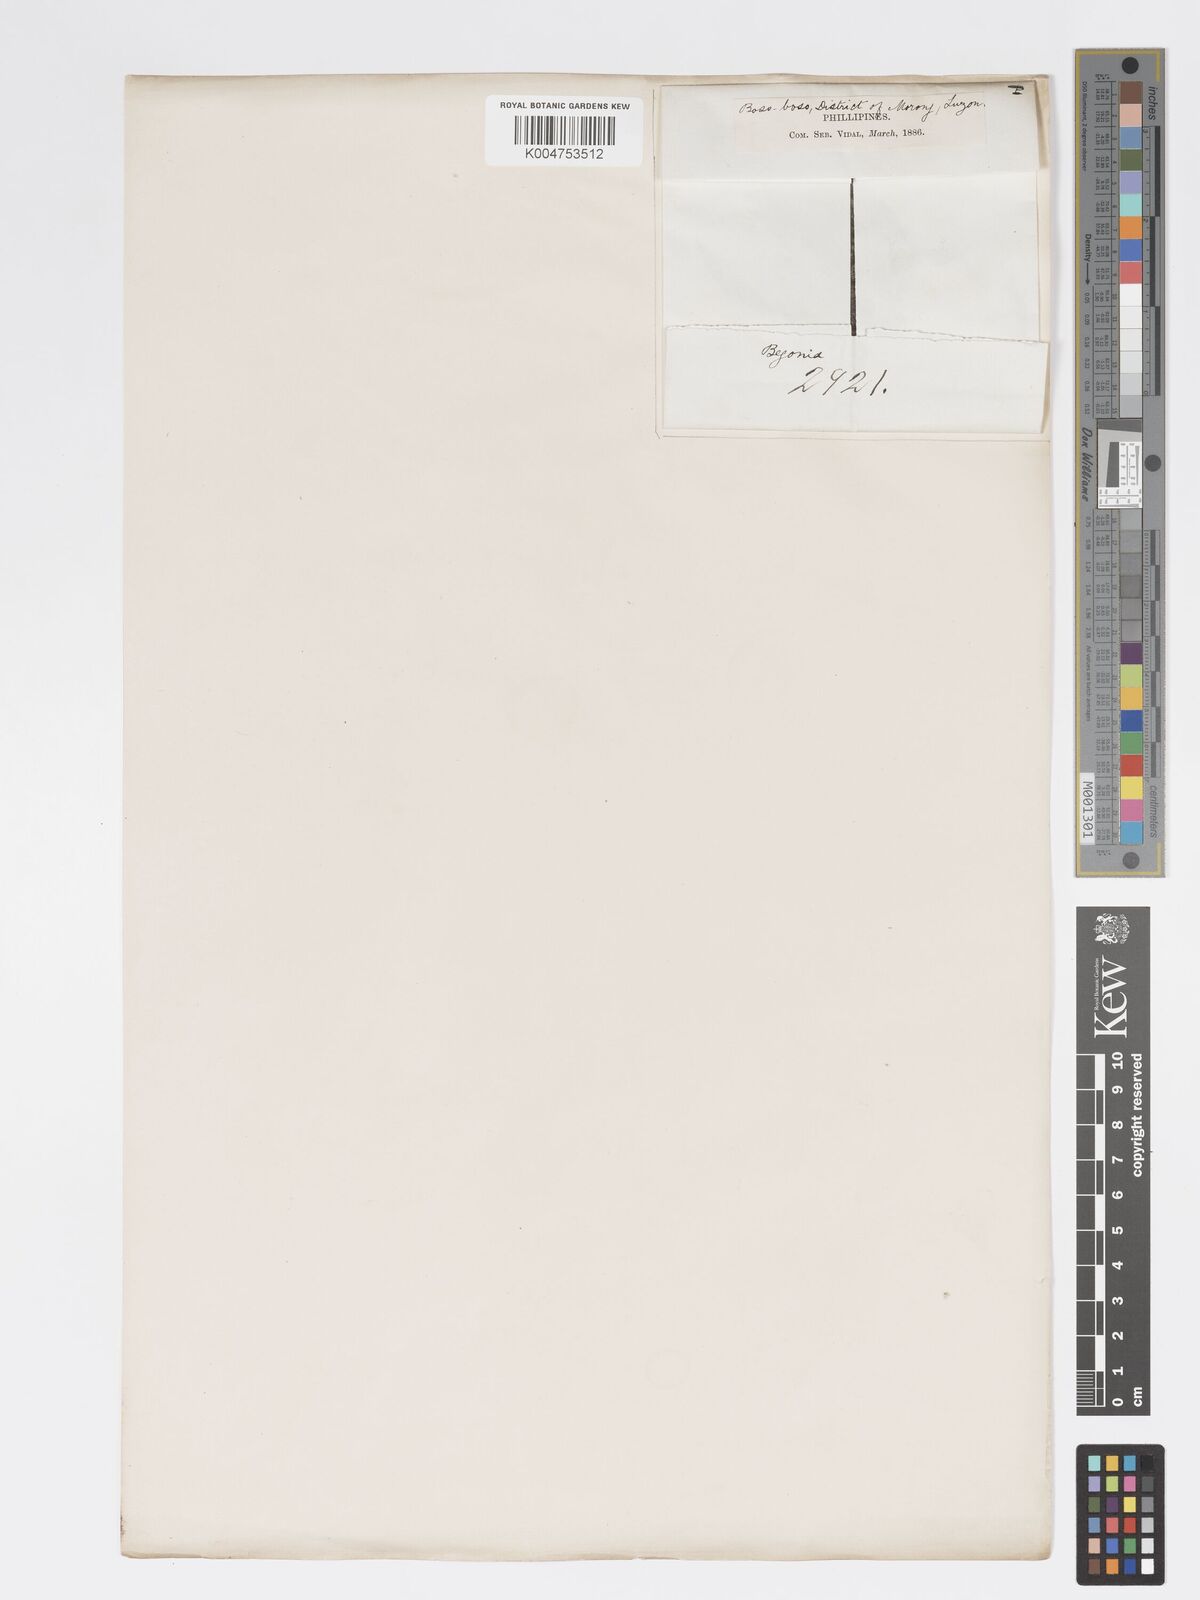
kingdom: Plantae
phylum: Tracheophyta
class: Magnoliopsida
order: Cucurbitales
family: Begoniaceae
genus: Begonia
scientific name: Begonia
